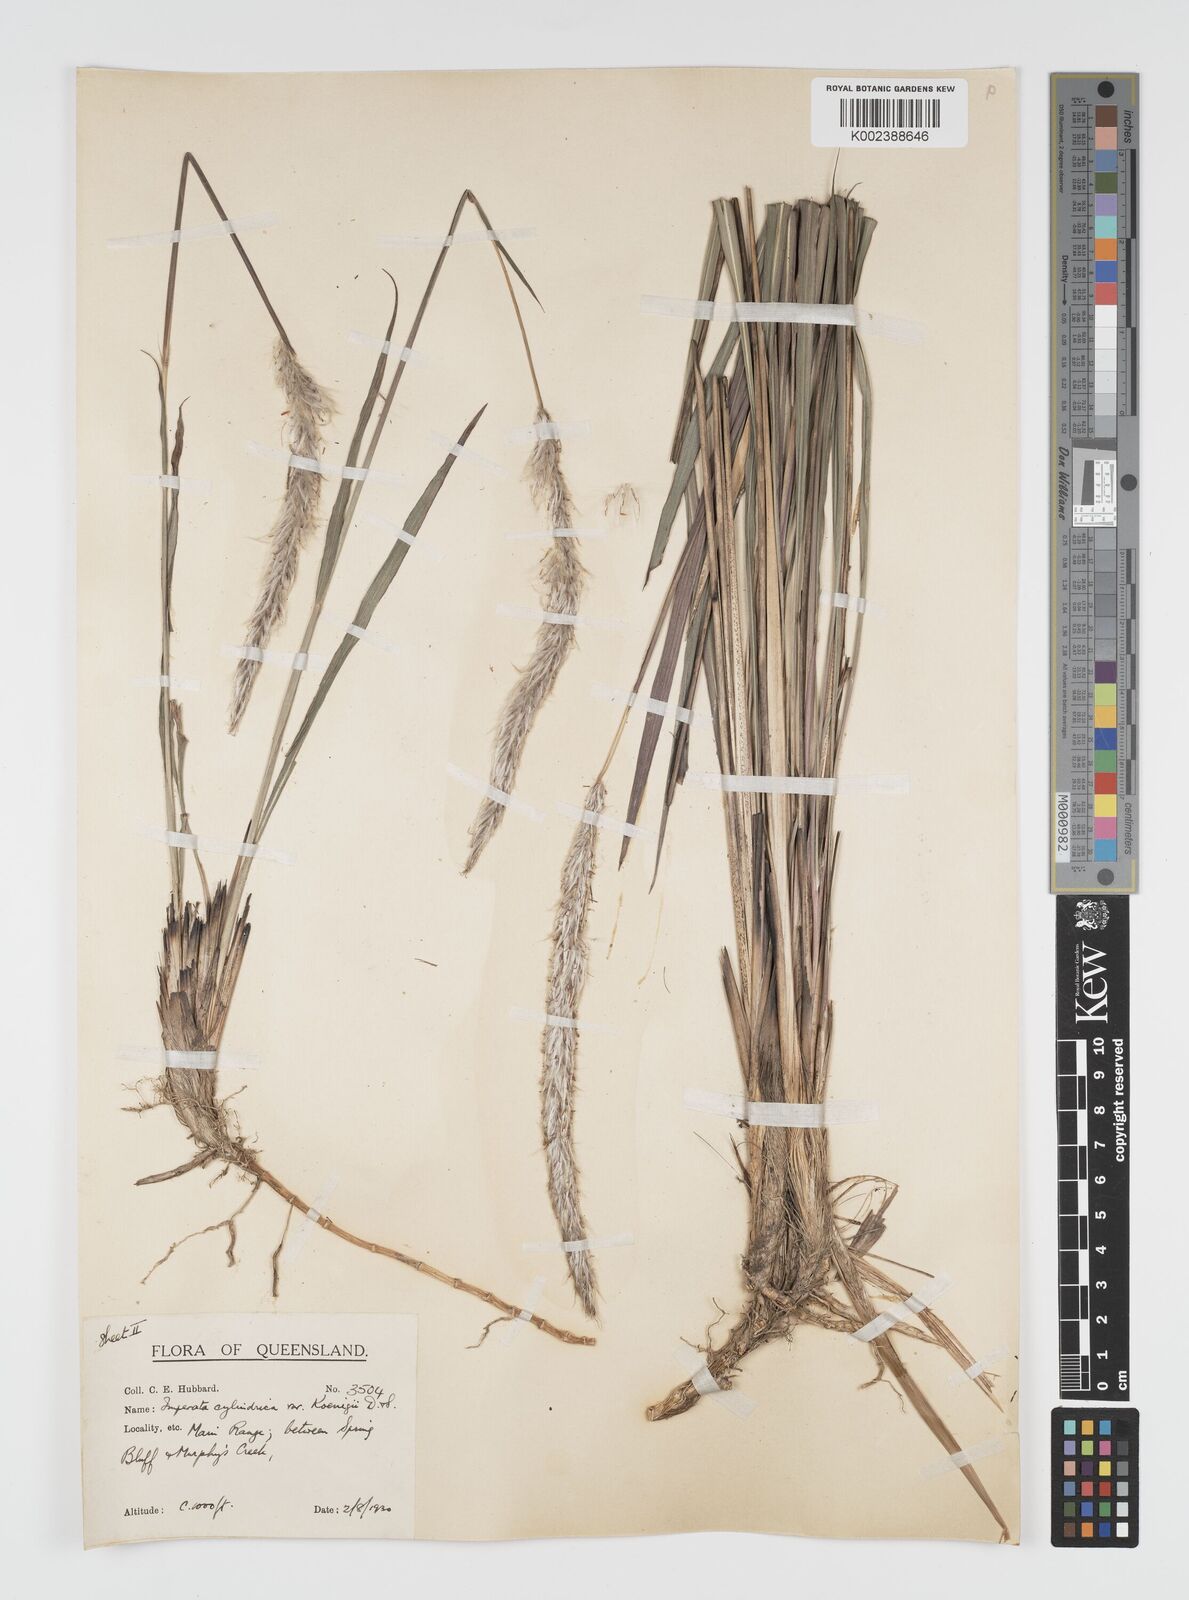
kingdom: Plantae
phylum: Tracheophyta
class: Liliopsida
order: Poales
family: Poaceae
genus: Imperata
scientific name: Imperata cylindrica
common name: Cogongrass
